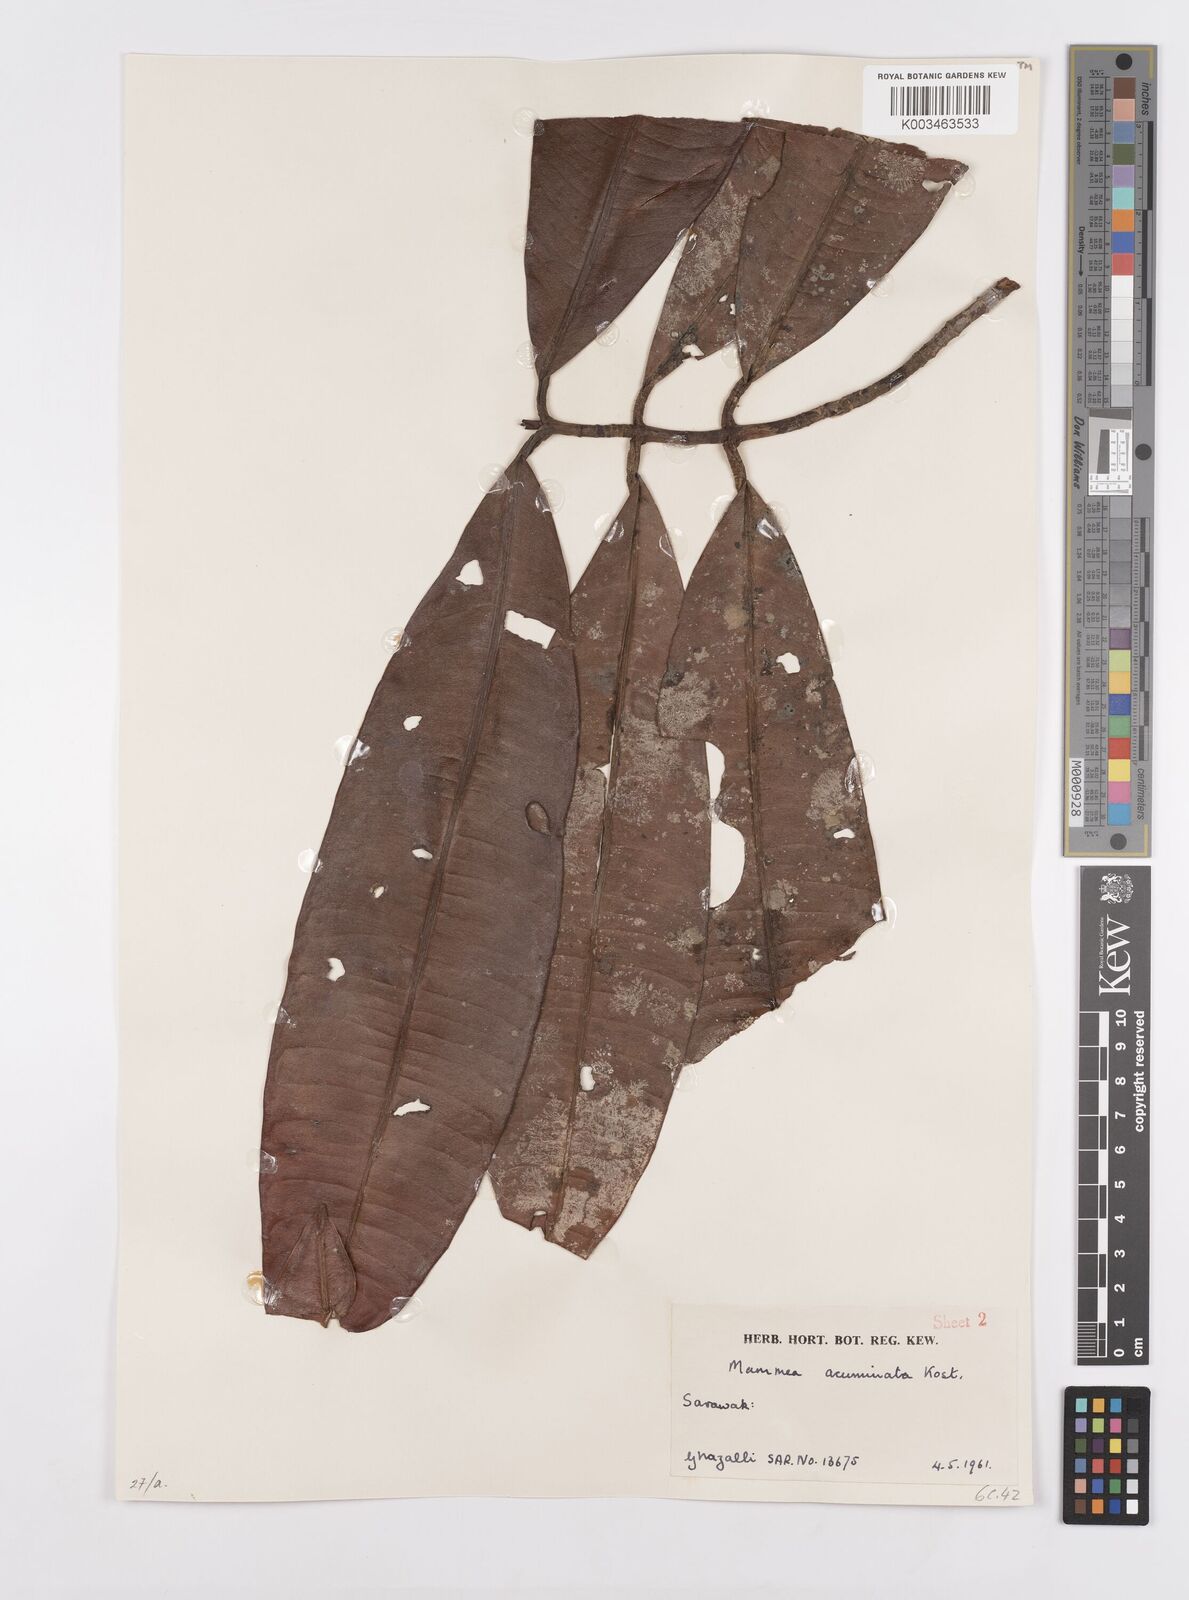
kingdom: Plantae
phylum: Tracheophyta
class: Magnoliopsida
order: Malpighiales
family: Calophyllaceae
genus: Mammea
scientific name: Mammea acuminata
